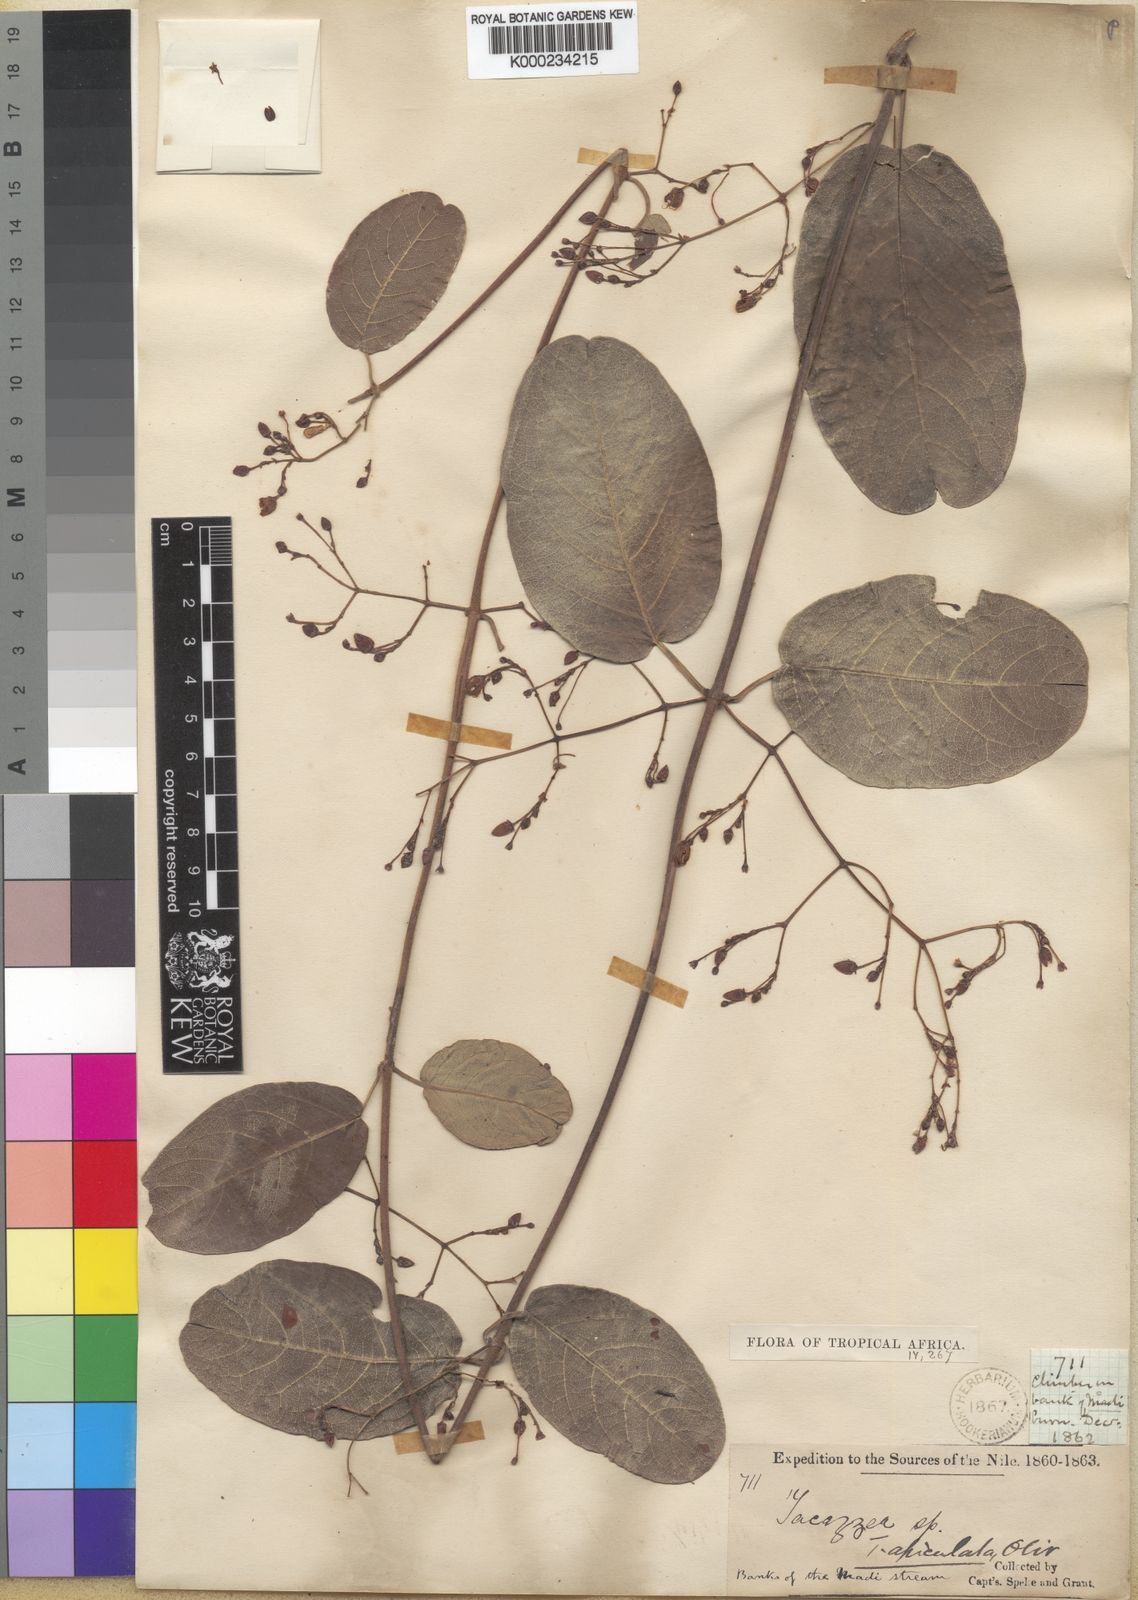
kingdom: Plantae
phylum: Tracheophyta
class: Magnoliopsida
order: Gentianales
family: Apocynaceae
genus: Tacazzea
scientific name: Tacazzea apiculata
